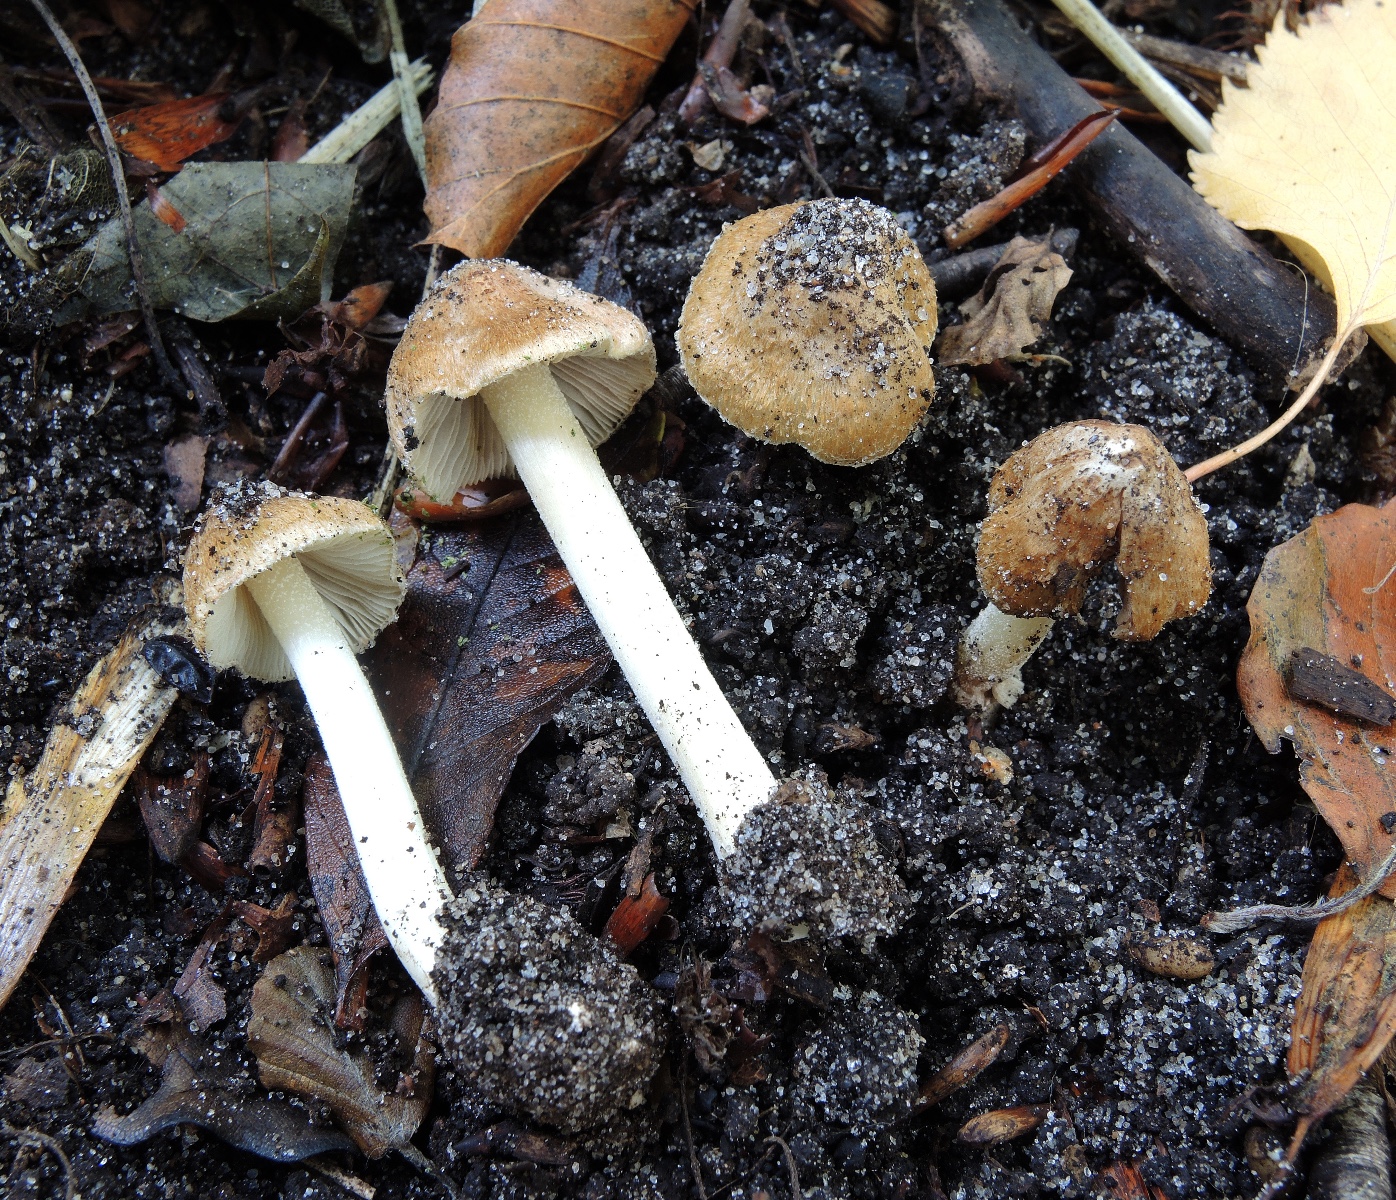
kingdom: Fungi
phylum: Basidiomycota
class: Agaricomycetes
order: Agaricales
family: Inocybaceae
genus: Inocybe
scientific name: Inocybe
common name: trævlhat
